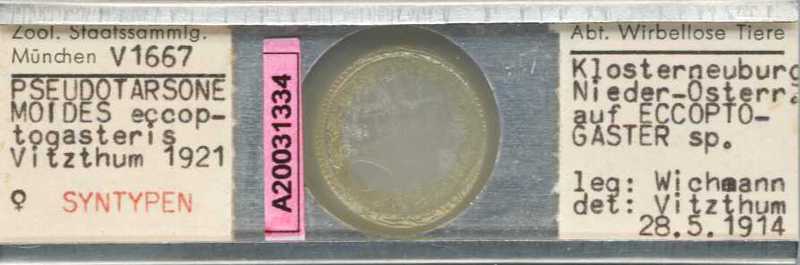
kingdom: Animalia
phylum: Arthropoda
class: Arachnida
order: Trombidiformes
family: Tarsonemidae
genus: Pseudotarsonemoides
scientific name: Pseudotarsonemoides eccoptogasteris
